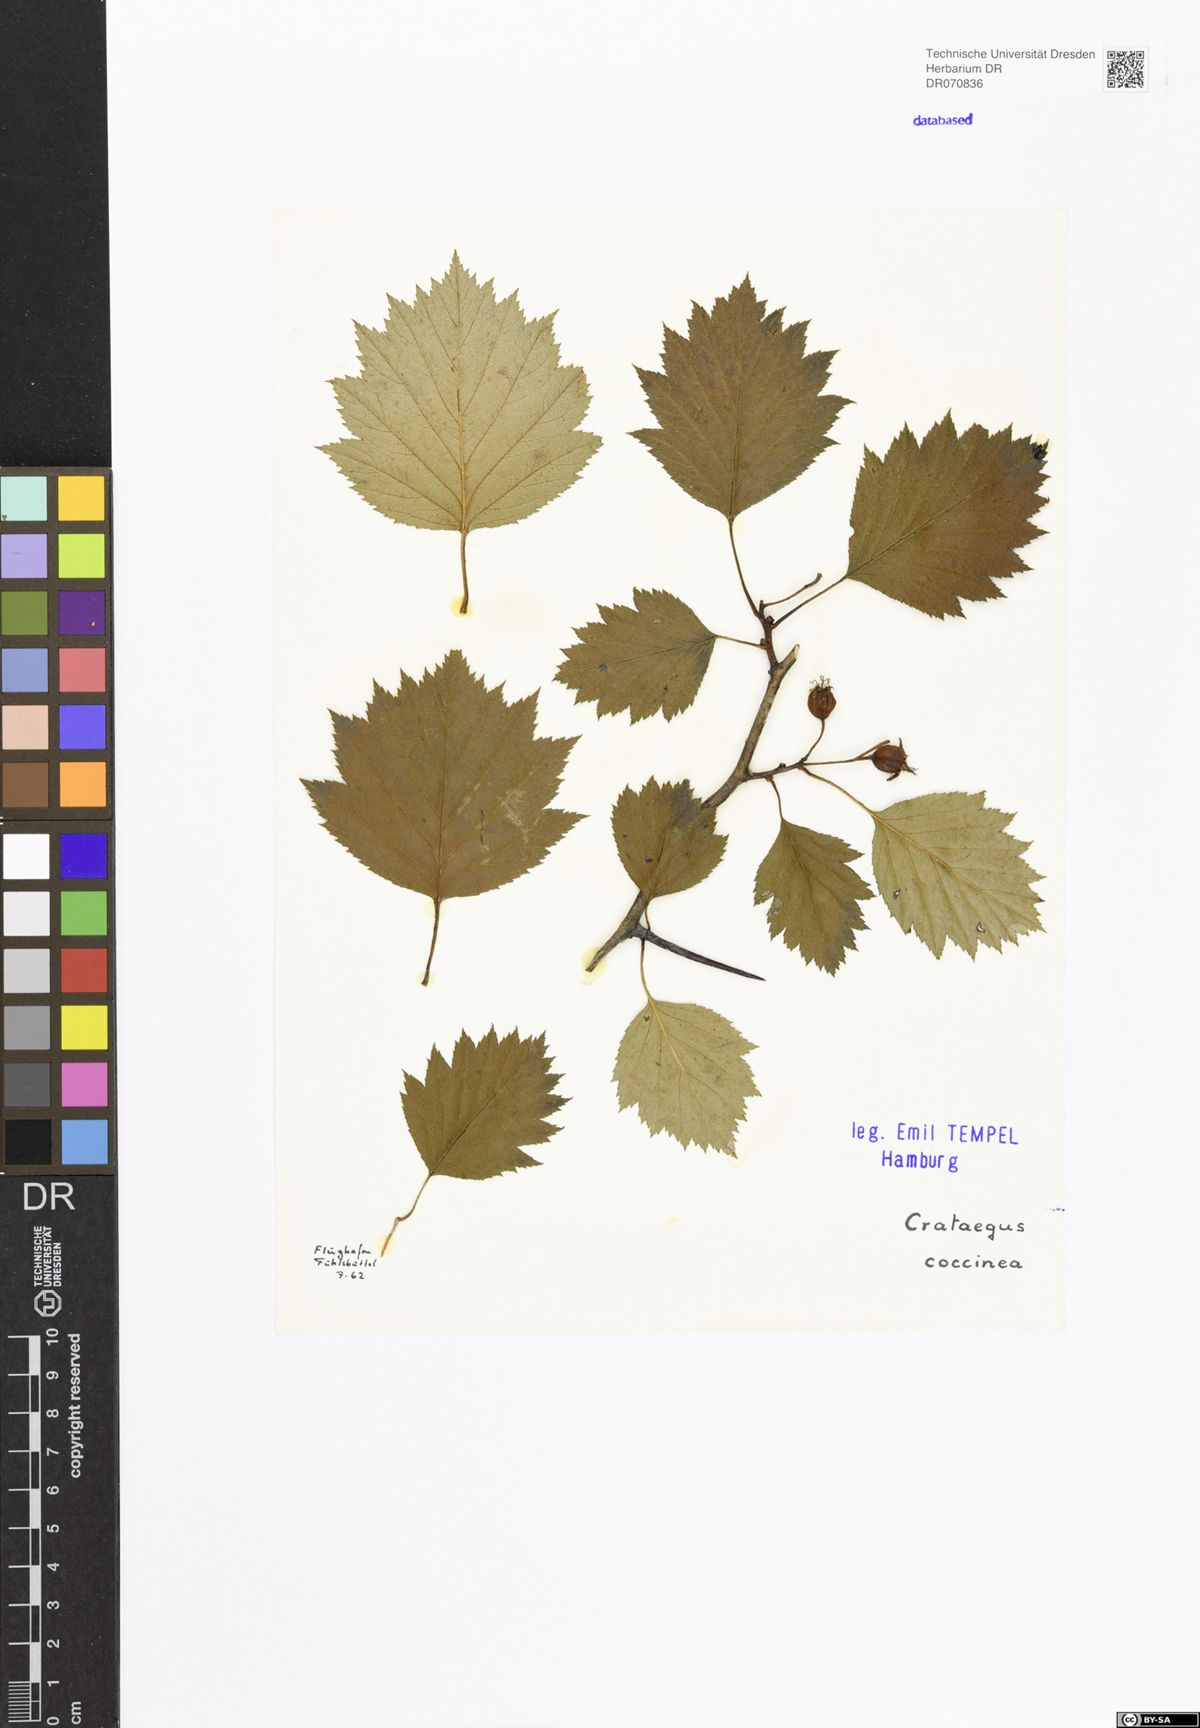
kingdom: Plantae
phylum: Tracheophyta
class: Magnoliopsida
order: Rosales
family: Rosaceae
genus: Crataegus
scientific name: Crataegus chrysocarpa
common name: Fire-berry hawthorn
